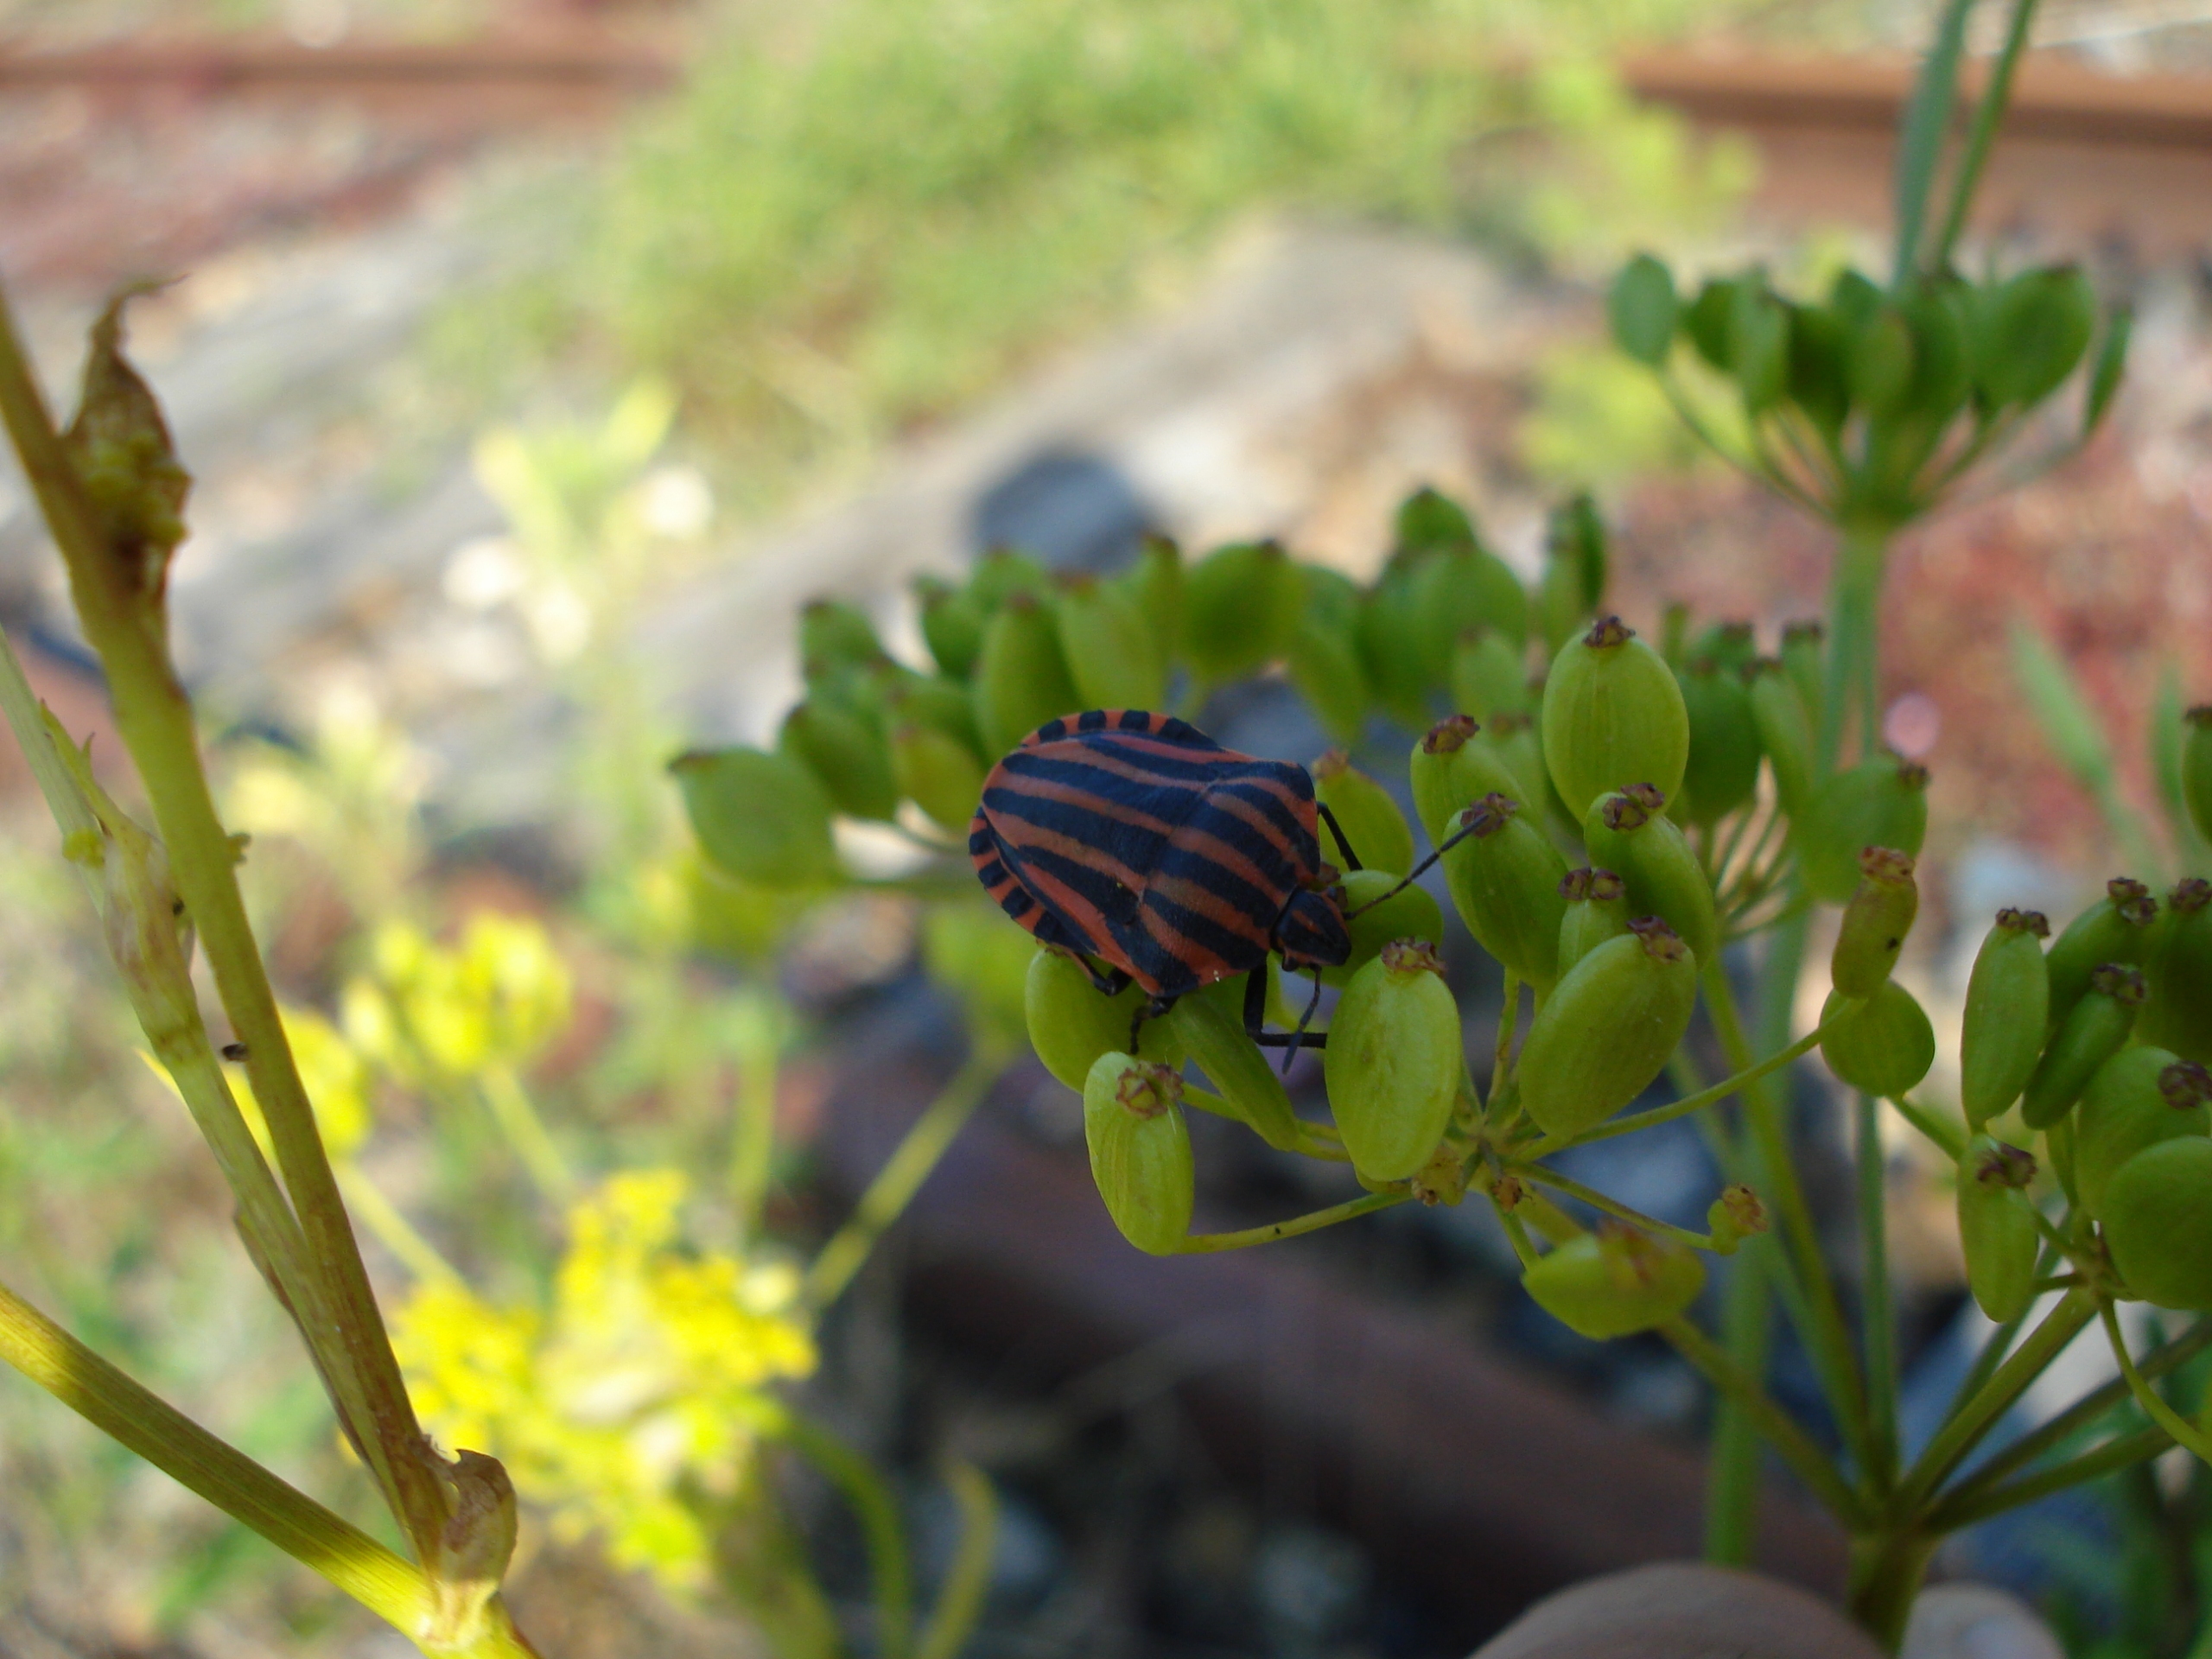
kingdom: Animalia
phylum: Arthropoda
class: Insecta
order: Hemiptera
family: Pentatomidae
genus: Graphosoma
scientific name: Graphosoma italicum
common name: Stribetæge
